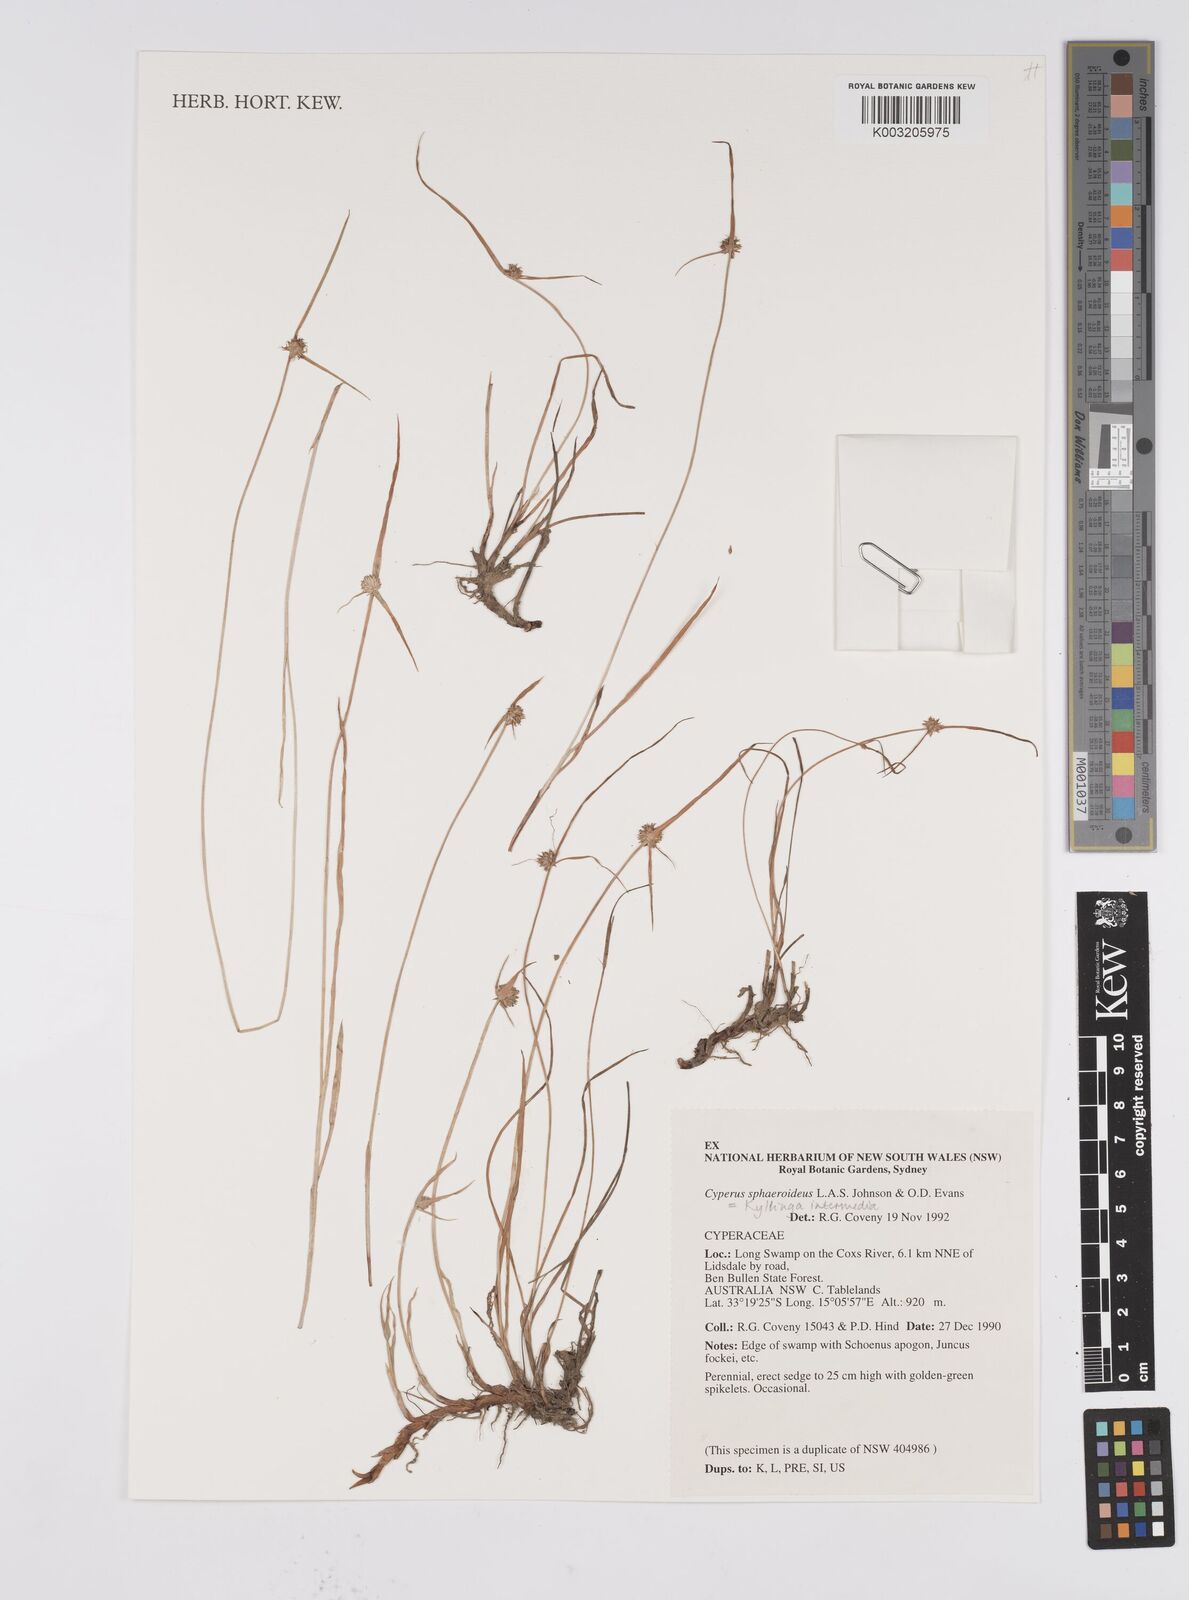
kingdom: Plantae
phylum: Tracheophyta
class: Liliopsida
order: Poales
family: Cyperaceae
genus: Cyperus
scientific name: Cyperus longus
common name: Galingale
